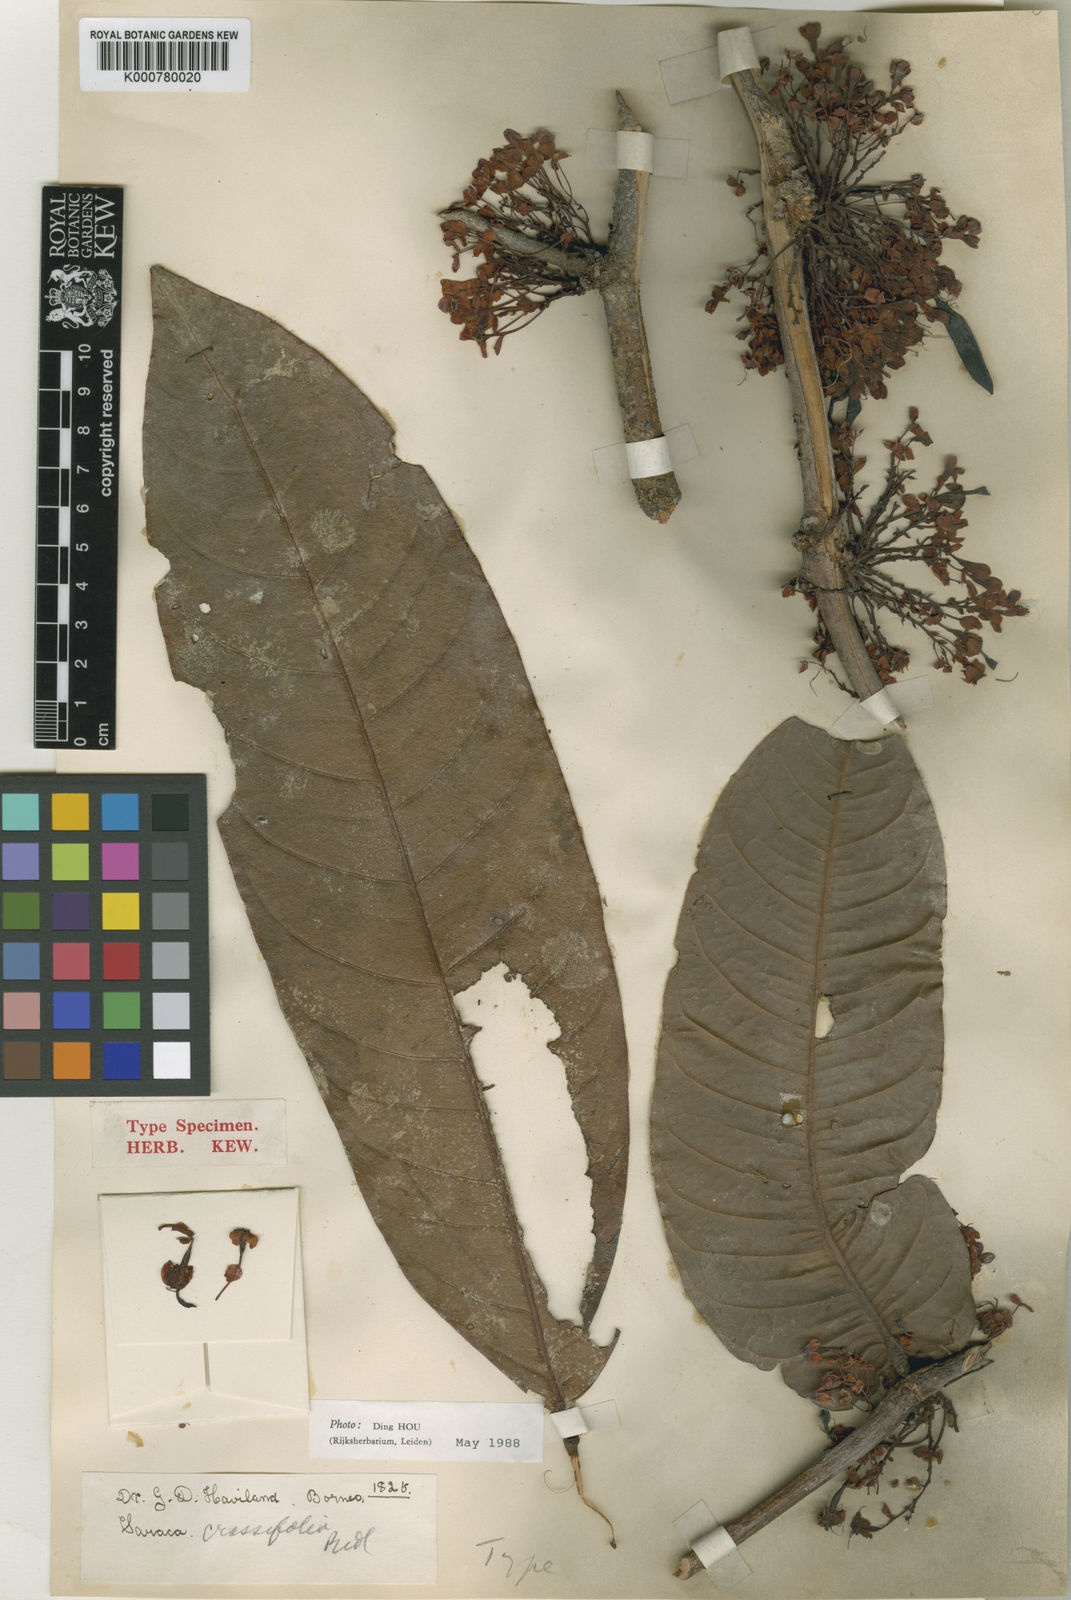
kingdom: Plantae
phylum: Tracheophyta
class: Magnoliopsida
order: Fabales
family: Fabaceae
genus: Saraca
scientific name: Saraca declinata
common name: Red saraca
